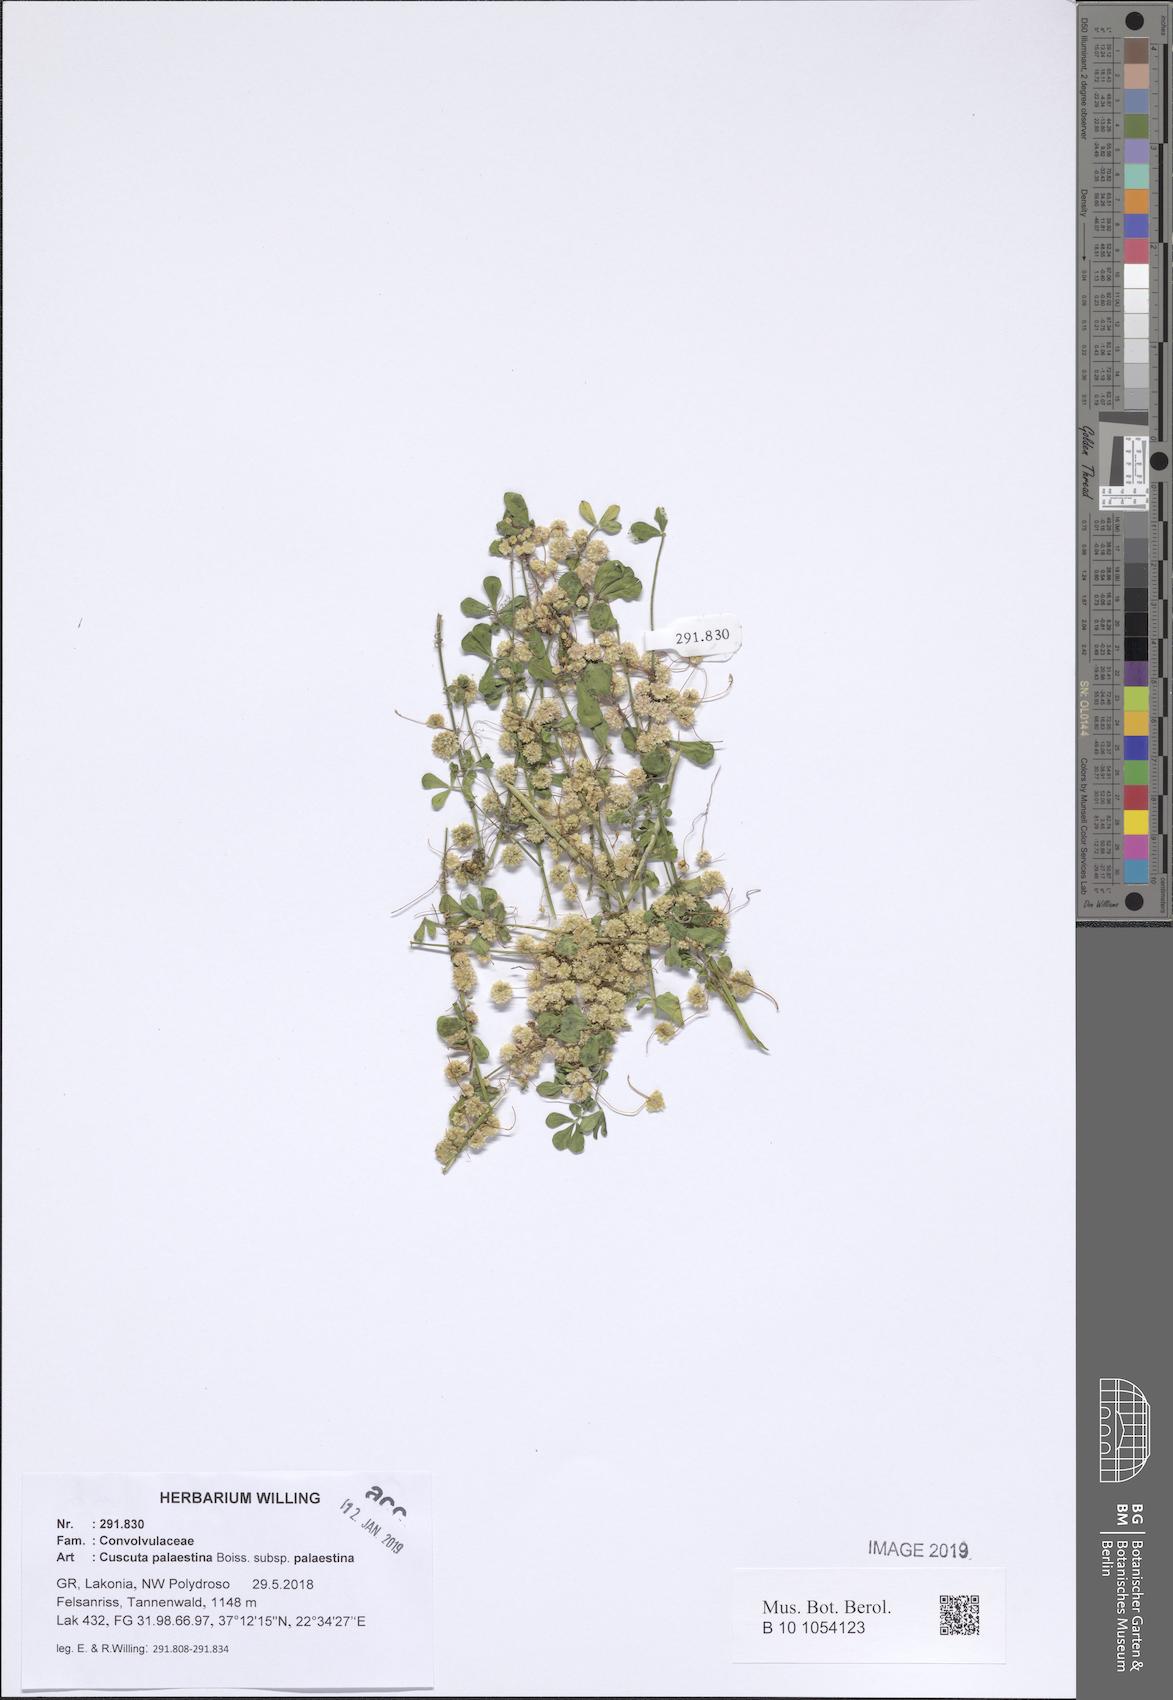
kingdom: Plantae
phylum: Tracheophyta
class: Magnoliopsida
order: Solanales
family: Convolvulaceae
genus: Cuscuta
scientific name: Cuscuta palaestina
